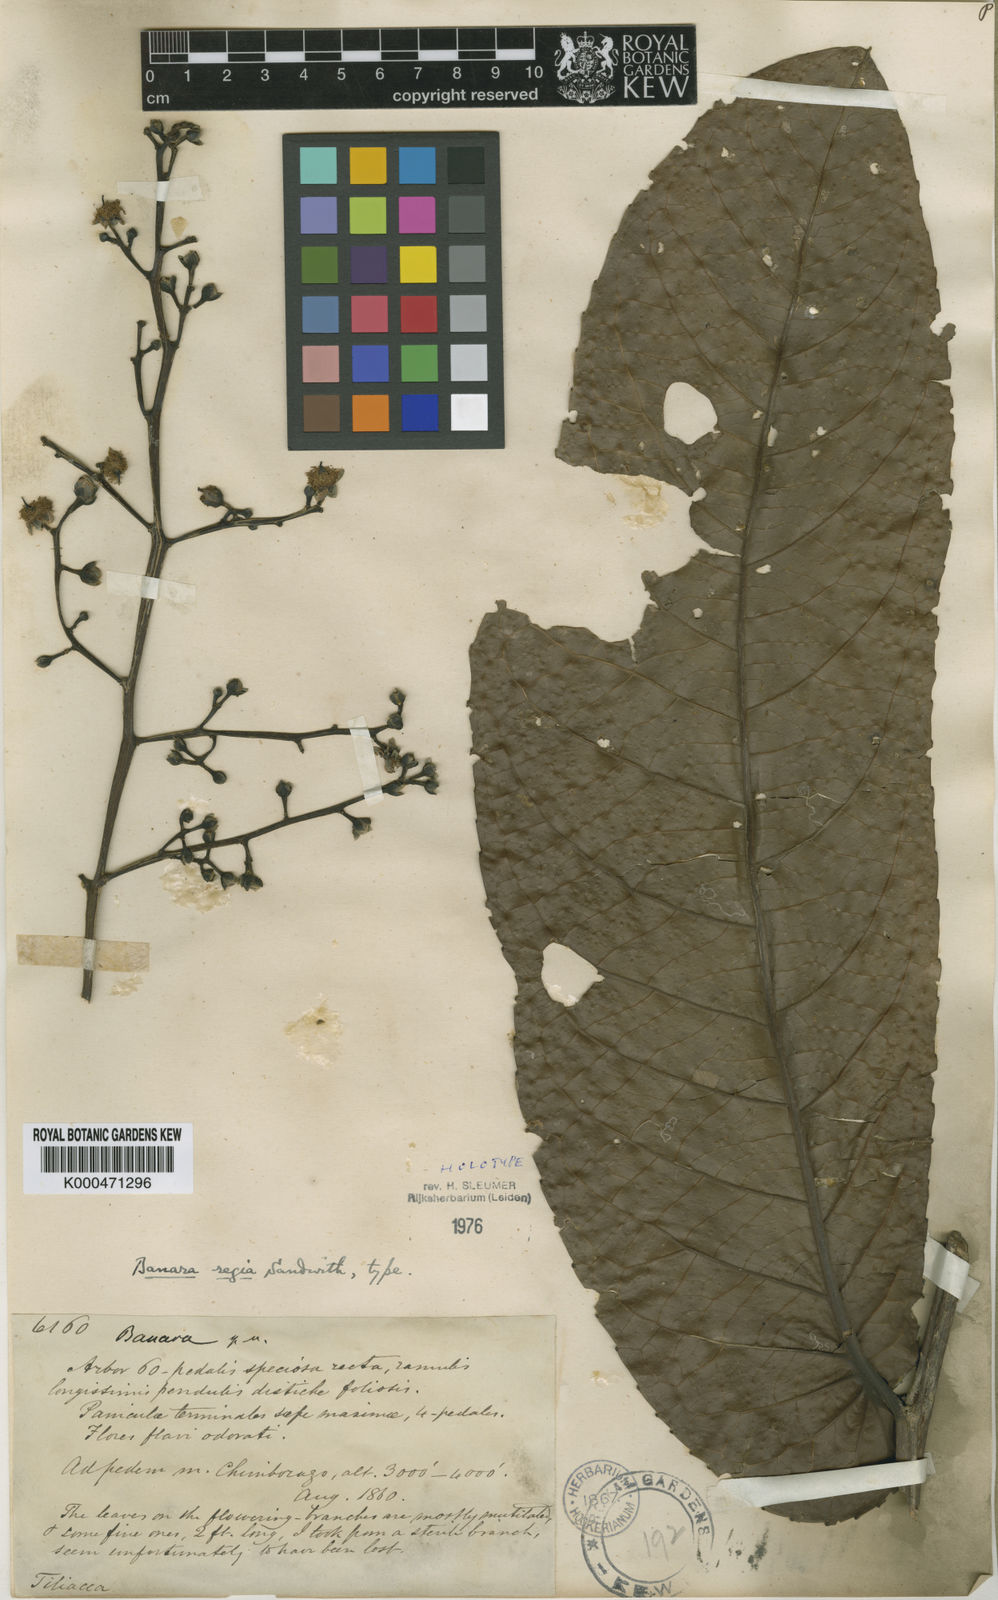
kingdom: Plantae
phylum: Tracheophyta
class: Magnoliopsida
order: Malpighiales
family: Salicaceae
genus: Banara
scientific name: Banara regia
